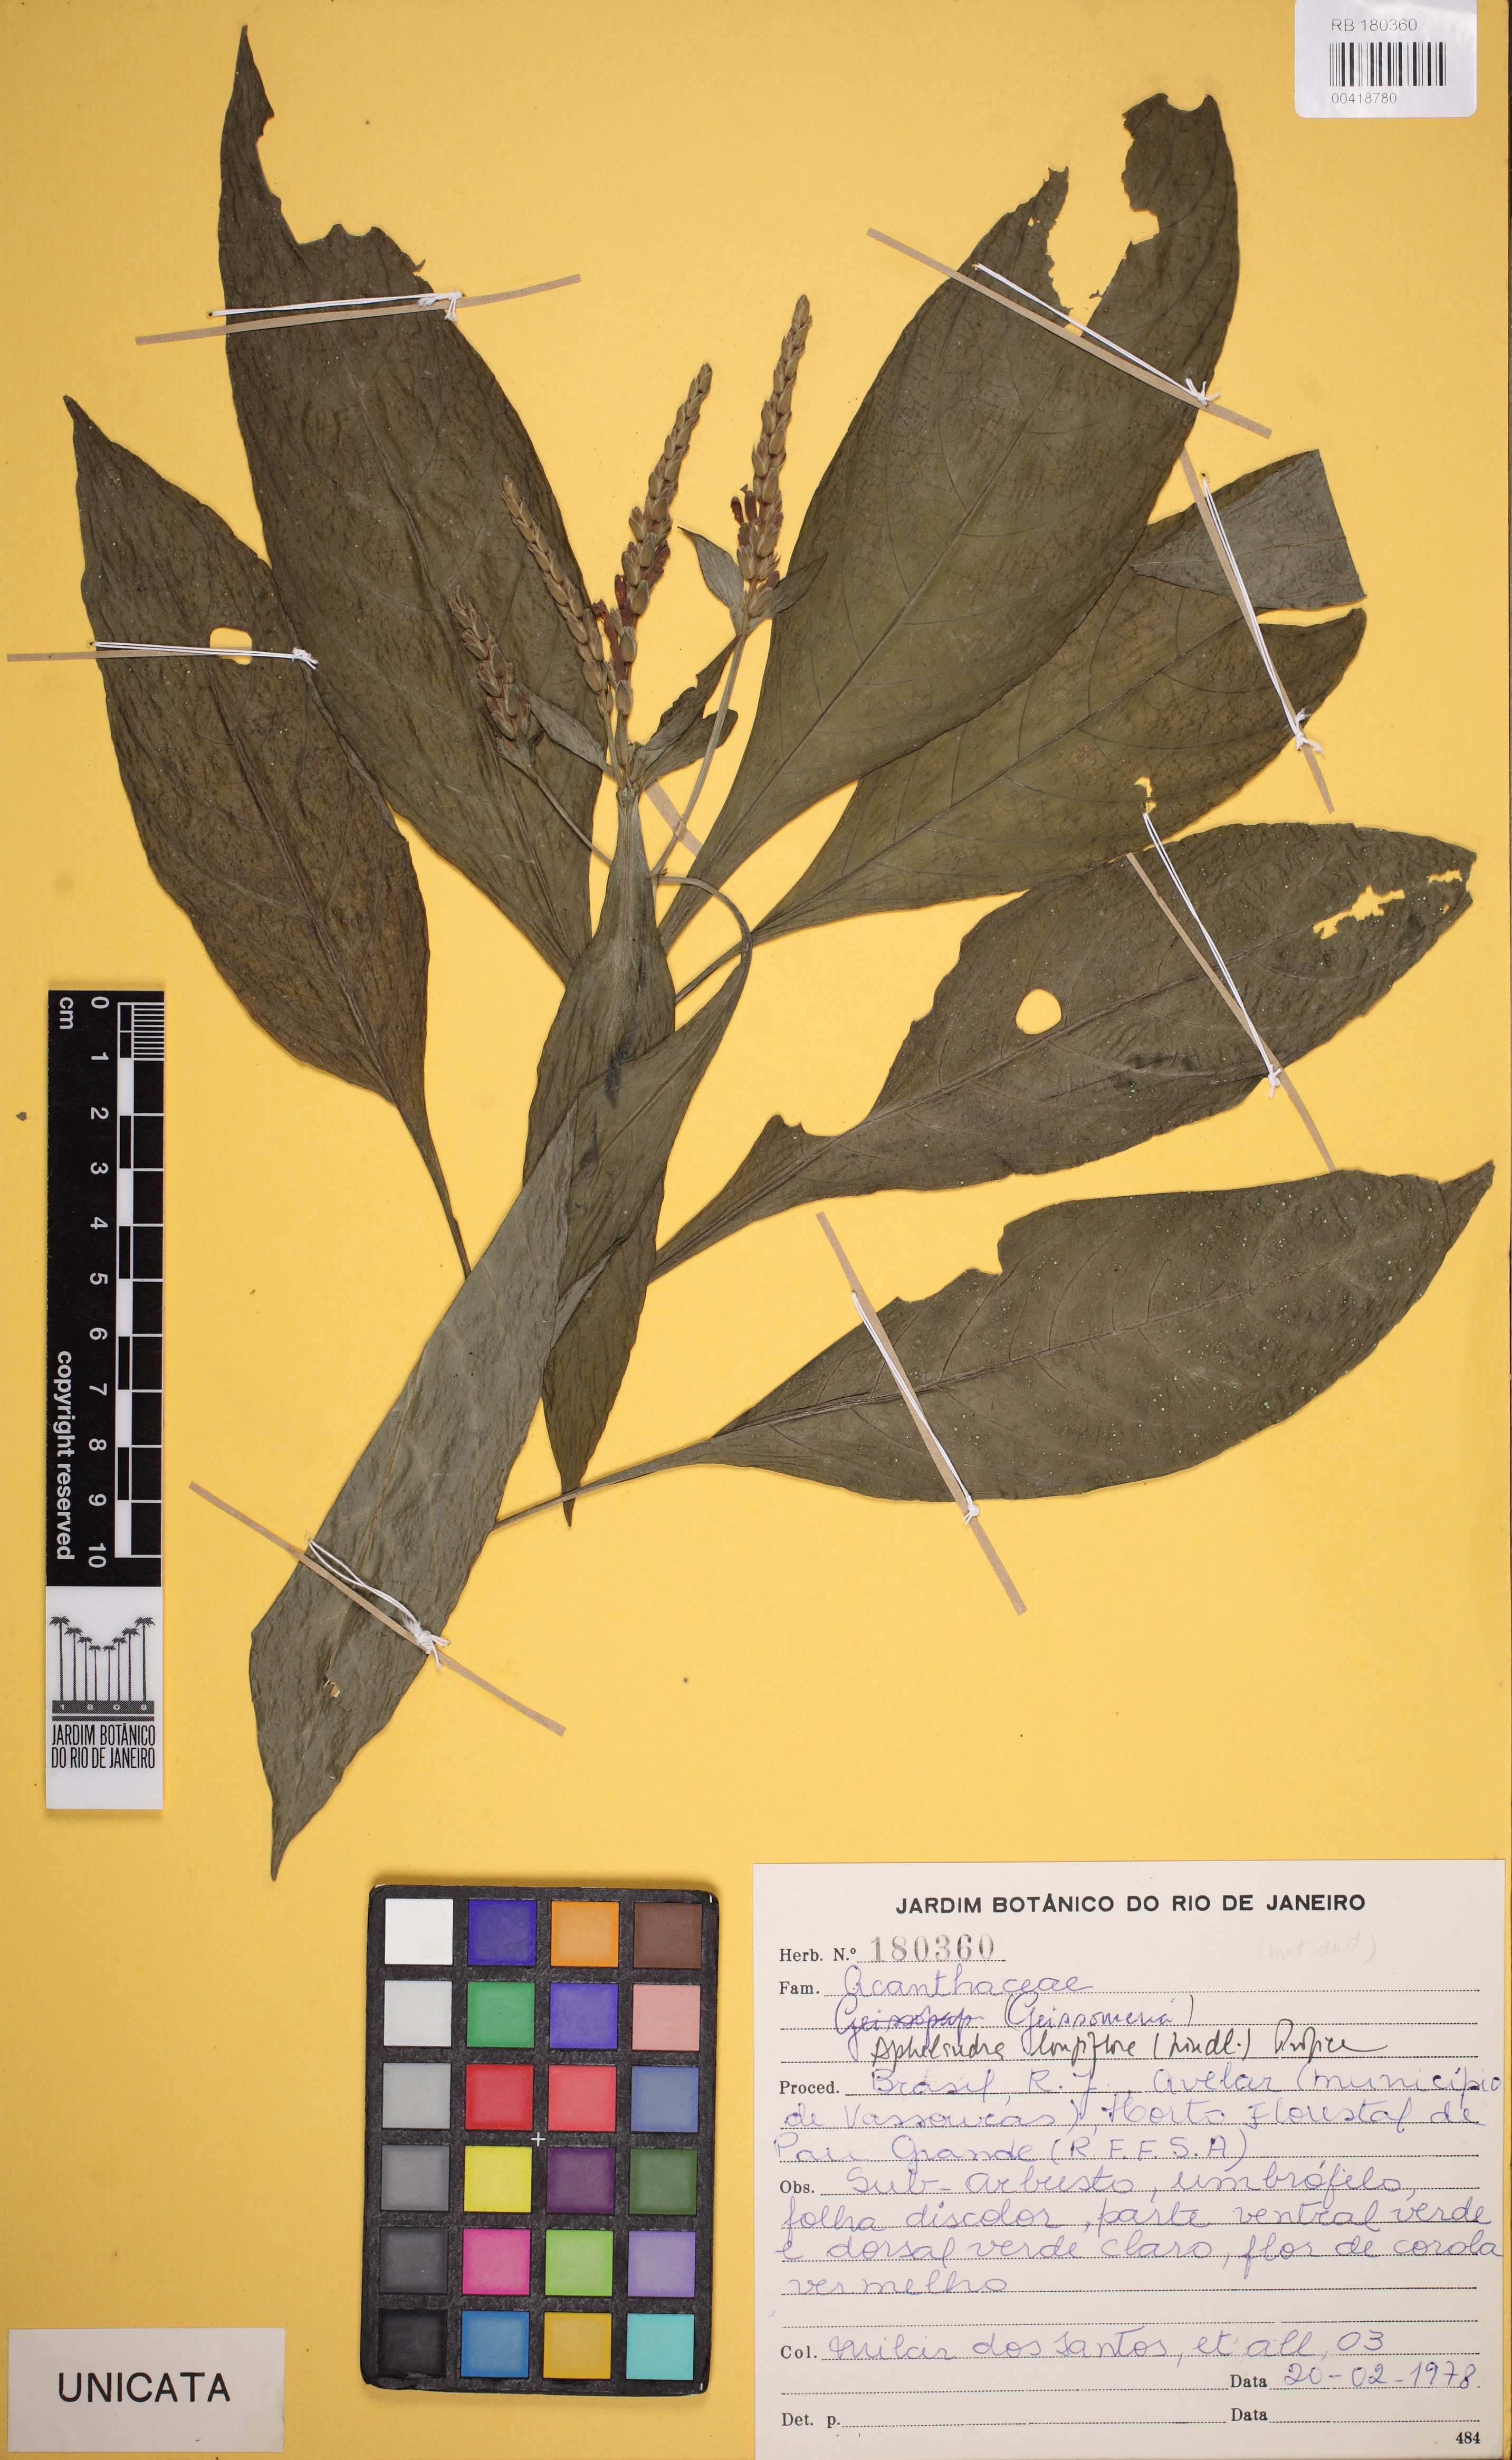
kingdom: Plantae
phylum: Tracheophyta
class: Magnoliopsida
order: Lamiales
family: Acanthaceae
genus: Aphelandra
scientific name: Aphelandra longiflora
